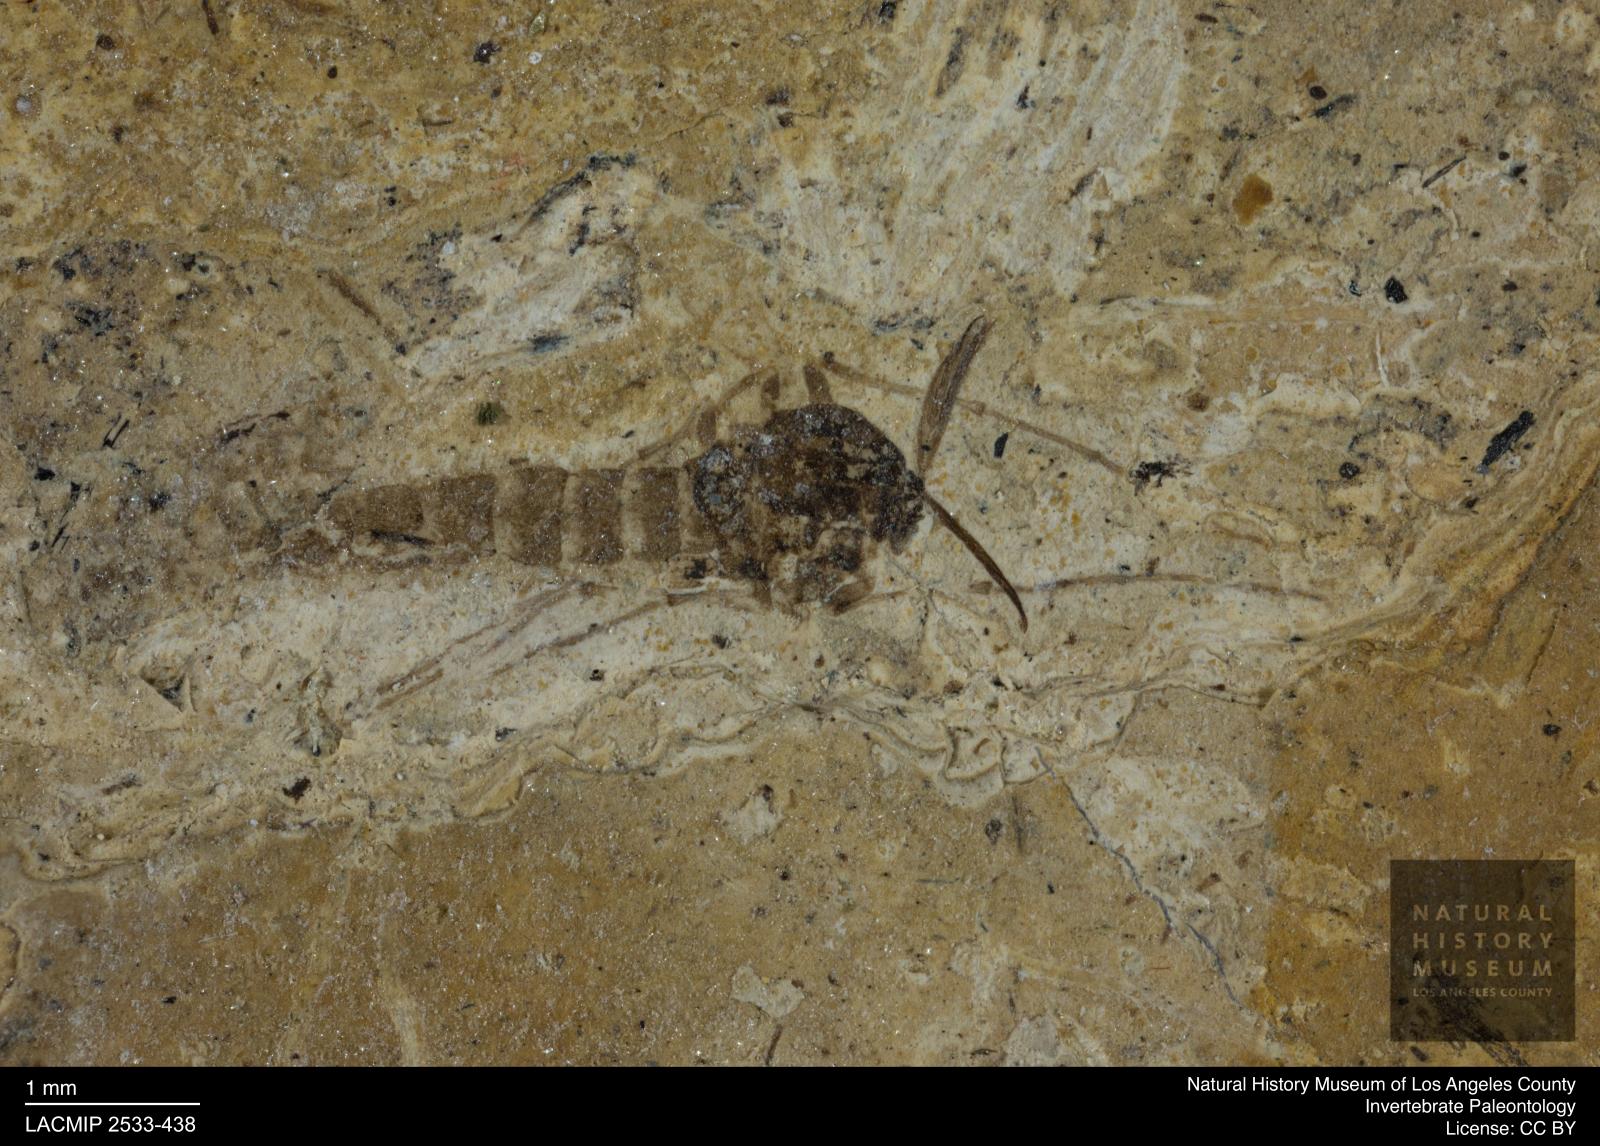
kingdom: Animalia
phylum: Arthropoda
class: Insecta
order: Diptera
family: Chironomidae
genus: Tanypus
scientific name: Tanypus thienemanni
